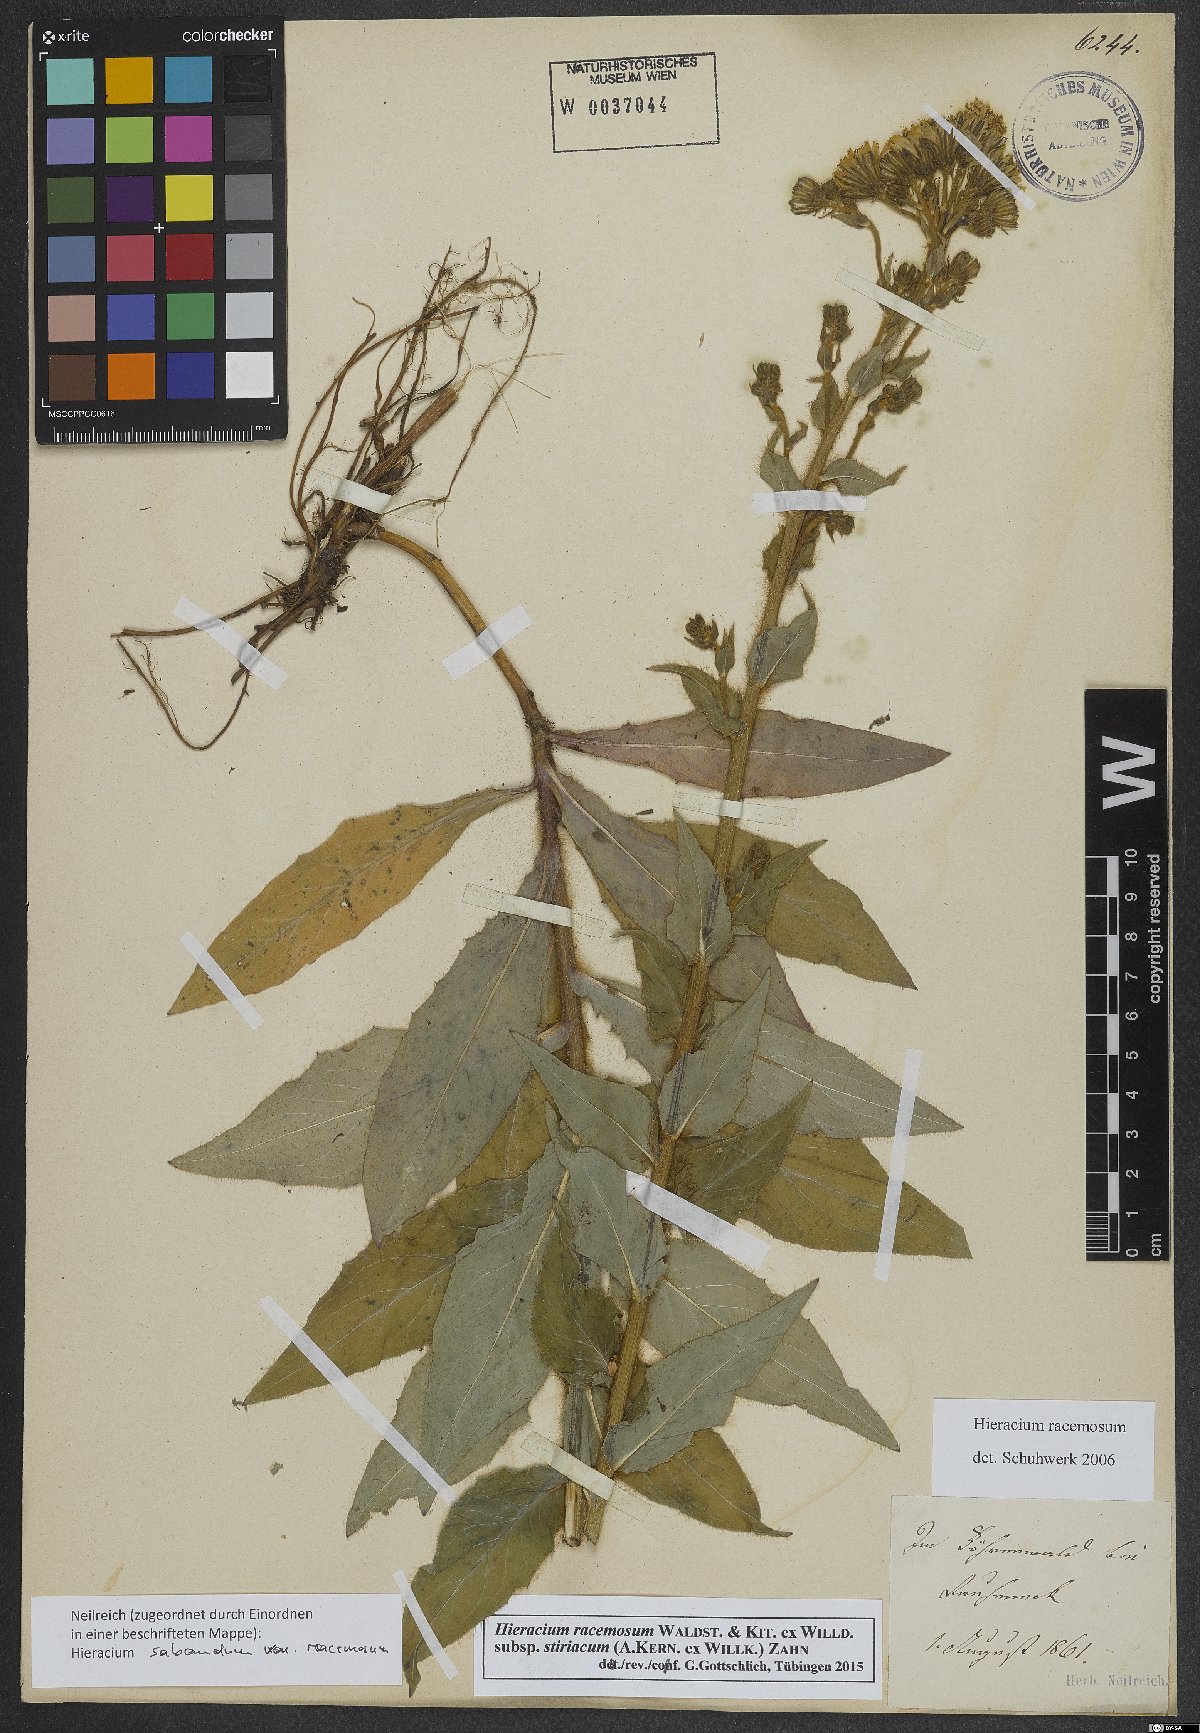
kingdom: Plantae
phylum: Tracheophyta
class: Magnoliopsida
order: Asterales
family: Asteraceae
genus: Hieracium
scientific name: Hieracium racemosum
